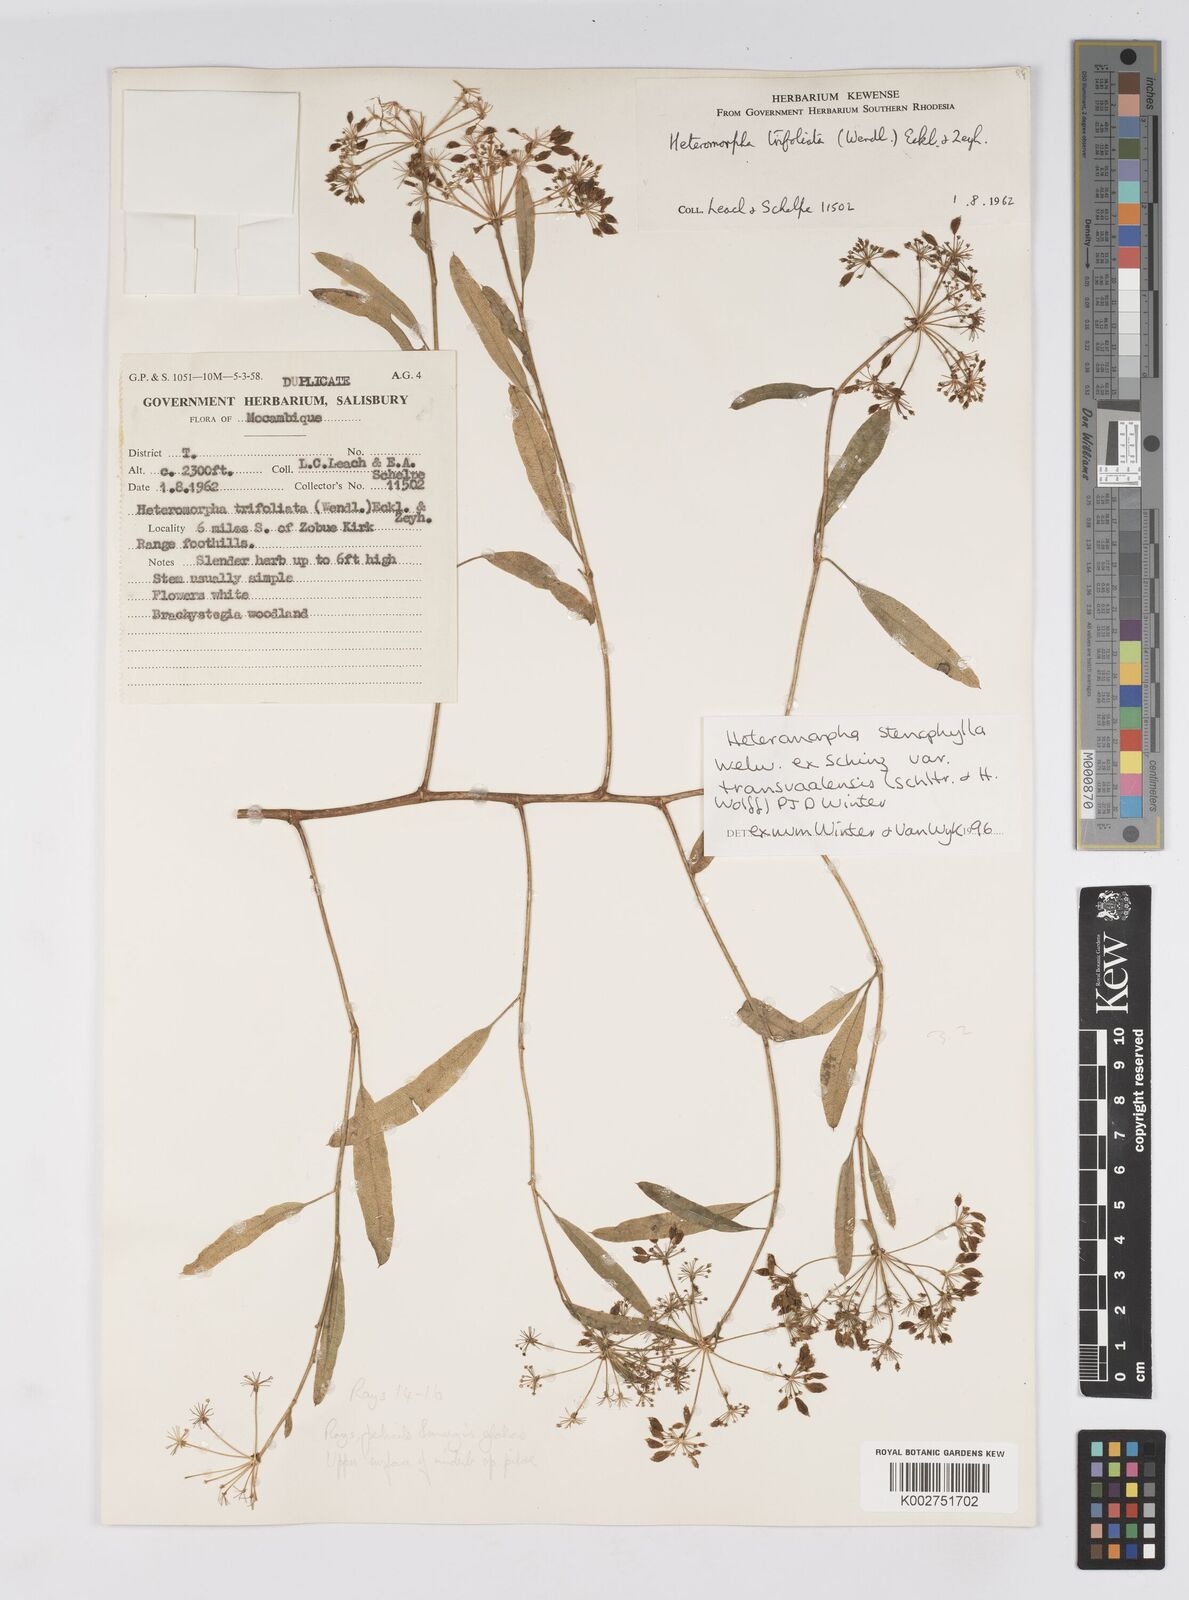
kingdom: Plantae
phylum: Tracheophyta
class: Magnoliopsida
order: Apiales
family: Apiaceae
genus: Heteromorpha
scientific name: Heteromorpha stenophylla
